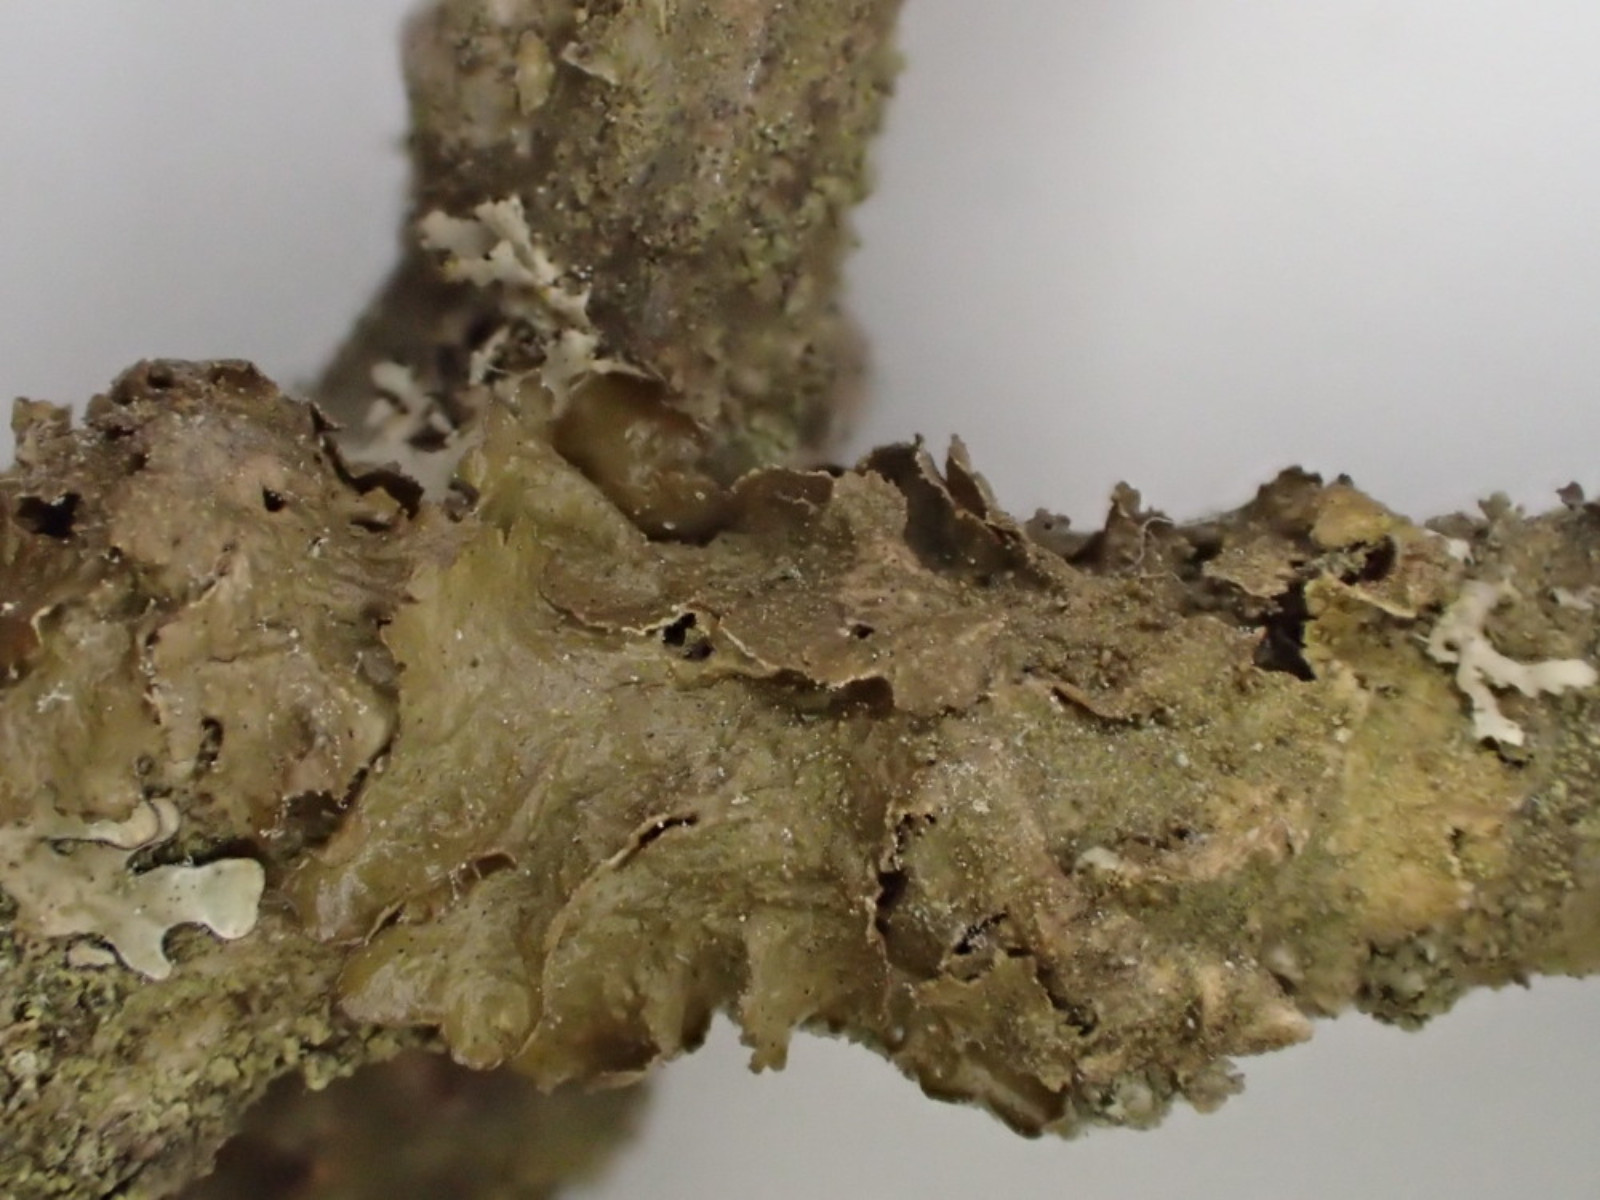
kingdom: Fungi
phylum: Ascomycota
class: Lecanoromycetes
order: Lecanorales
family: Parmeliaceae
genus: Melanelixia
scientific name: Melanelixia subaurifera
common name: guldpudret skållav
